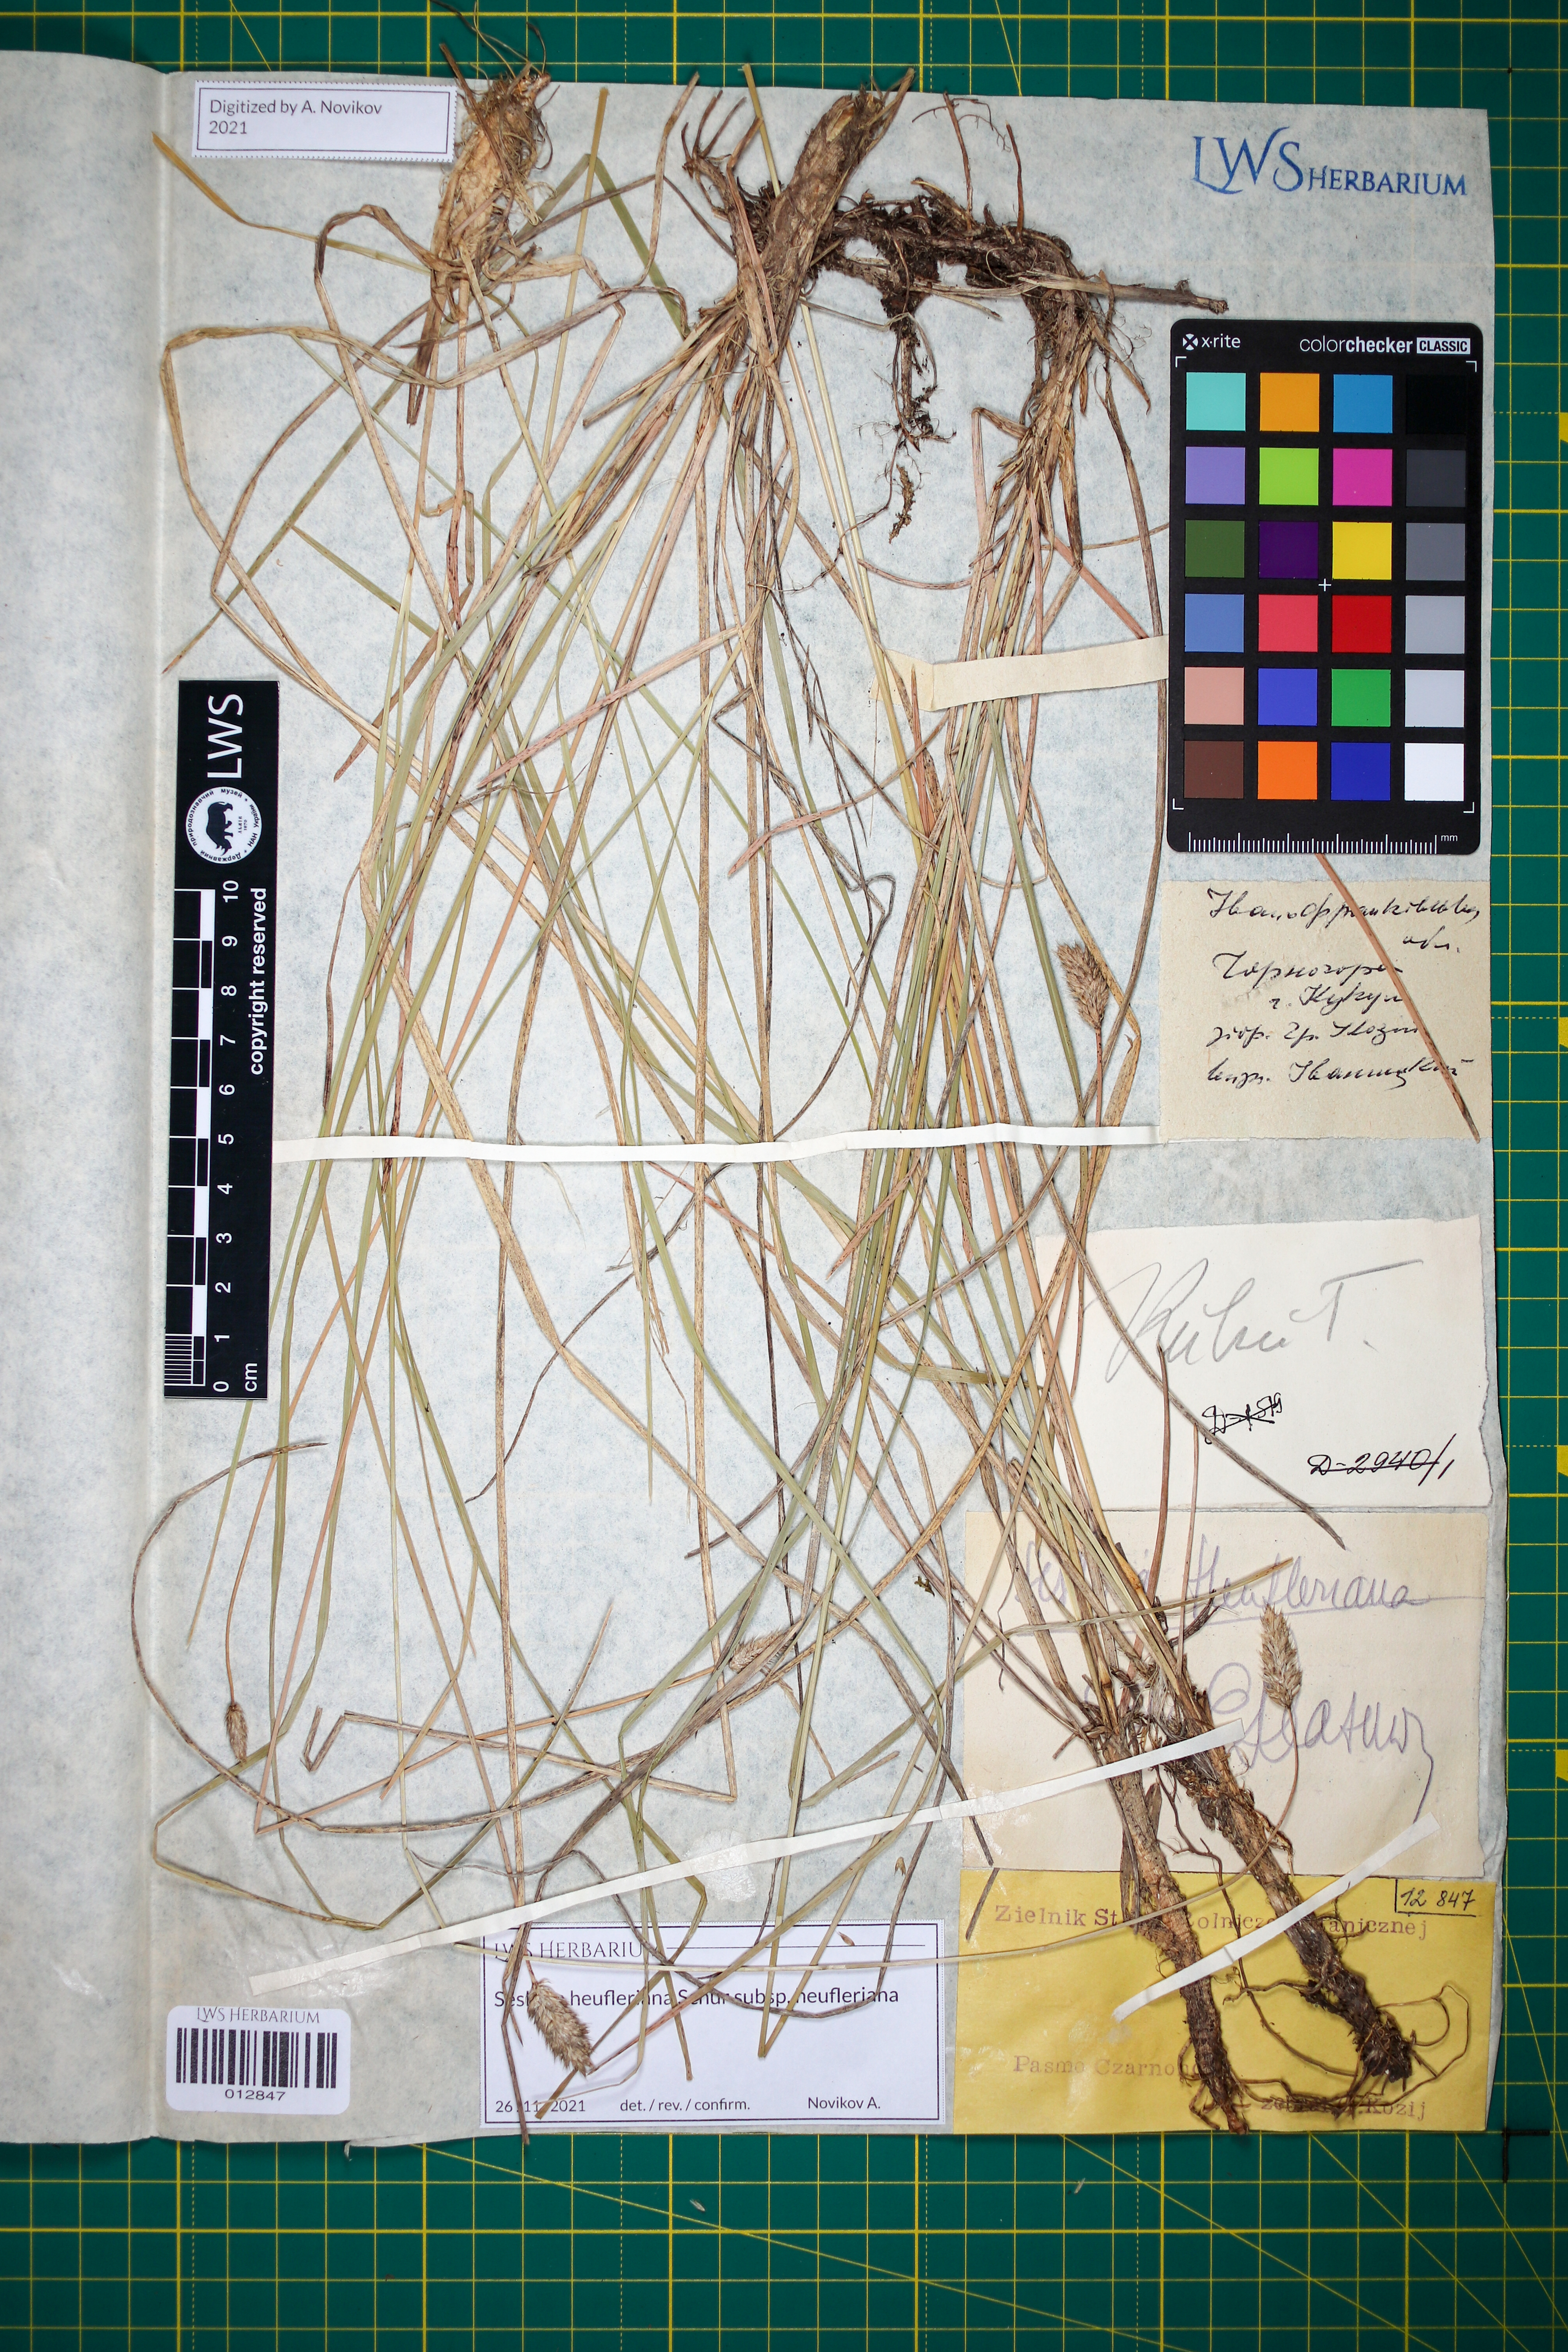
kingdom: Plantae
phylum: Tracheophyta
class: Liliopsida
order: Poales
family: Poaceae
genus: Sesleria
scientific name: Sesleria heufleriana
